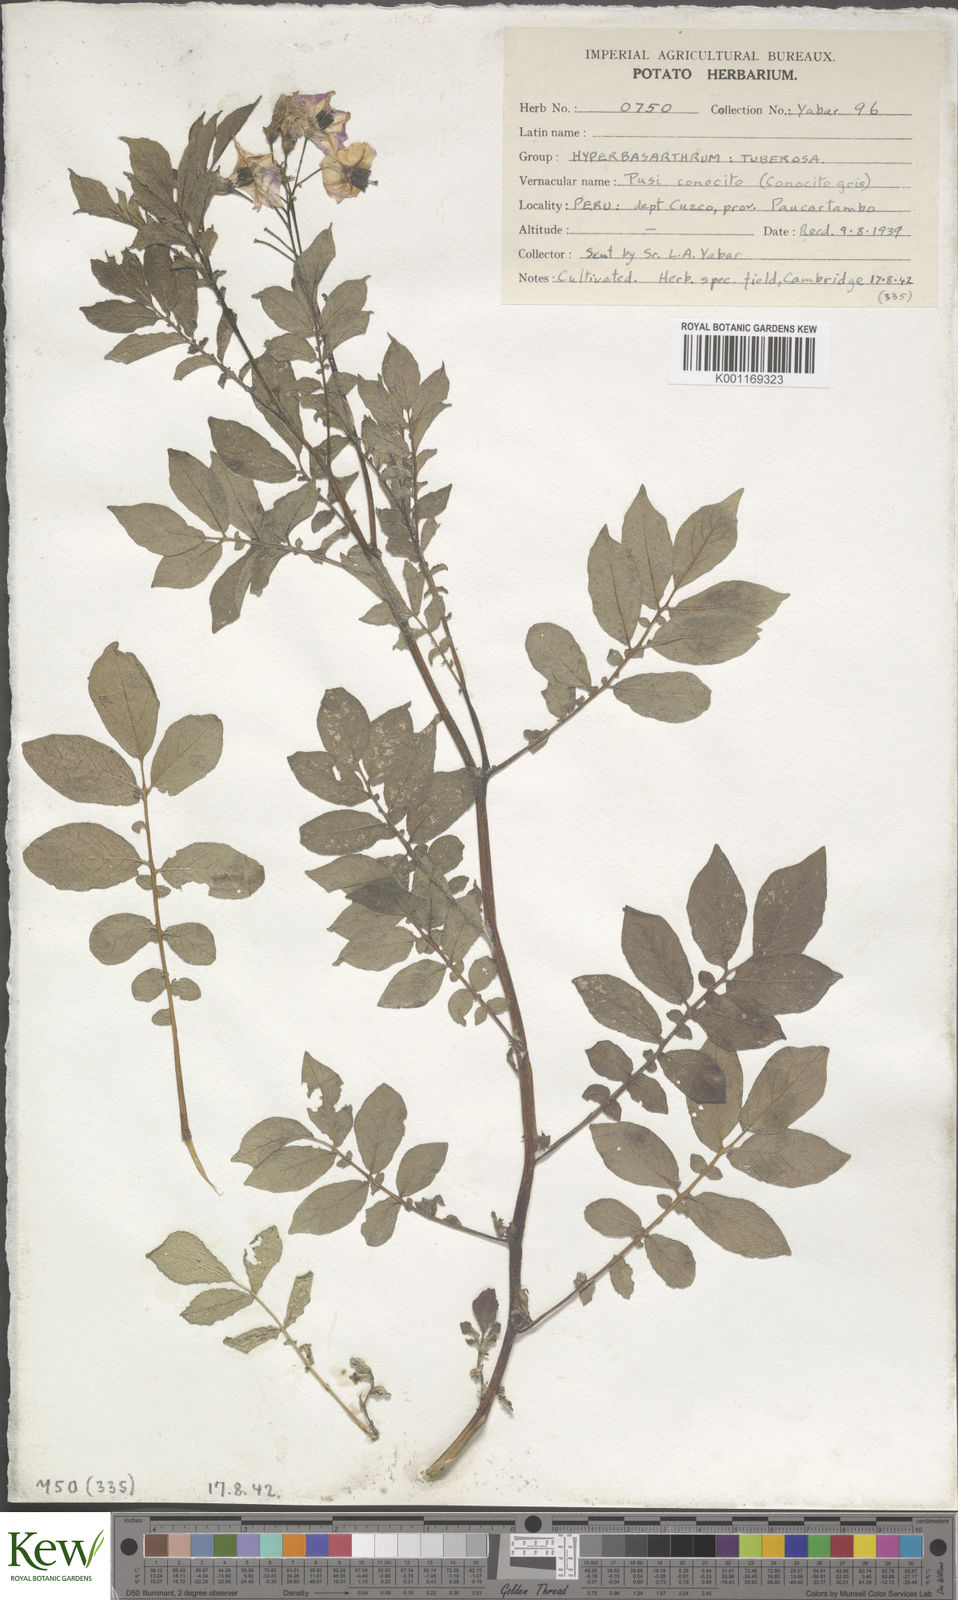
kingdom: Plantae
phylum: Tracheophyta
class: Magnoliopsida
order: Solanales
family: Solanaceae
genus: Solanum
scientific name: Solanum chaucha
